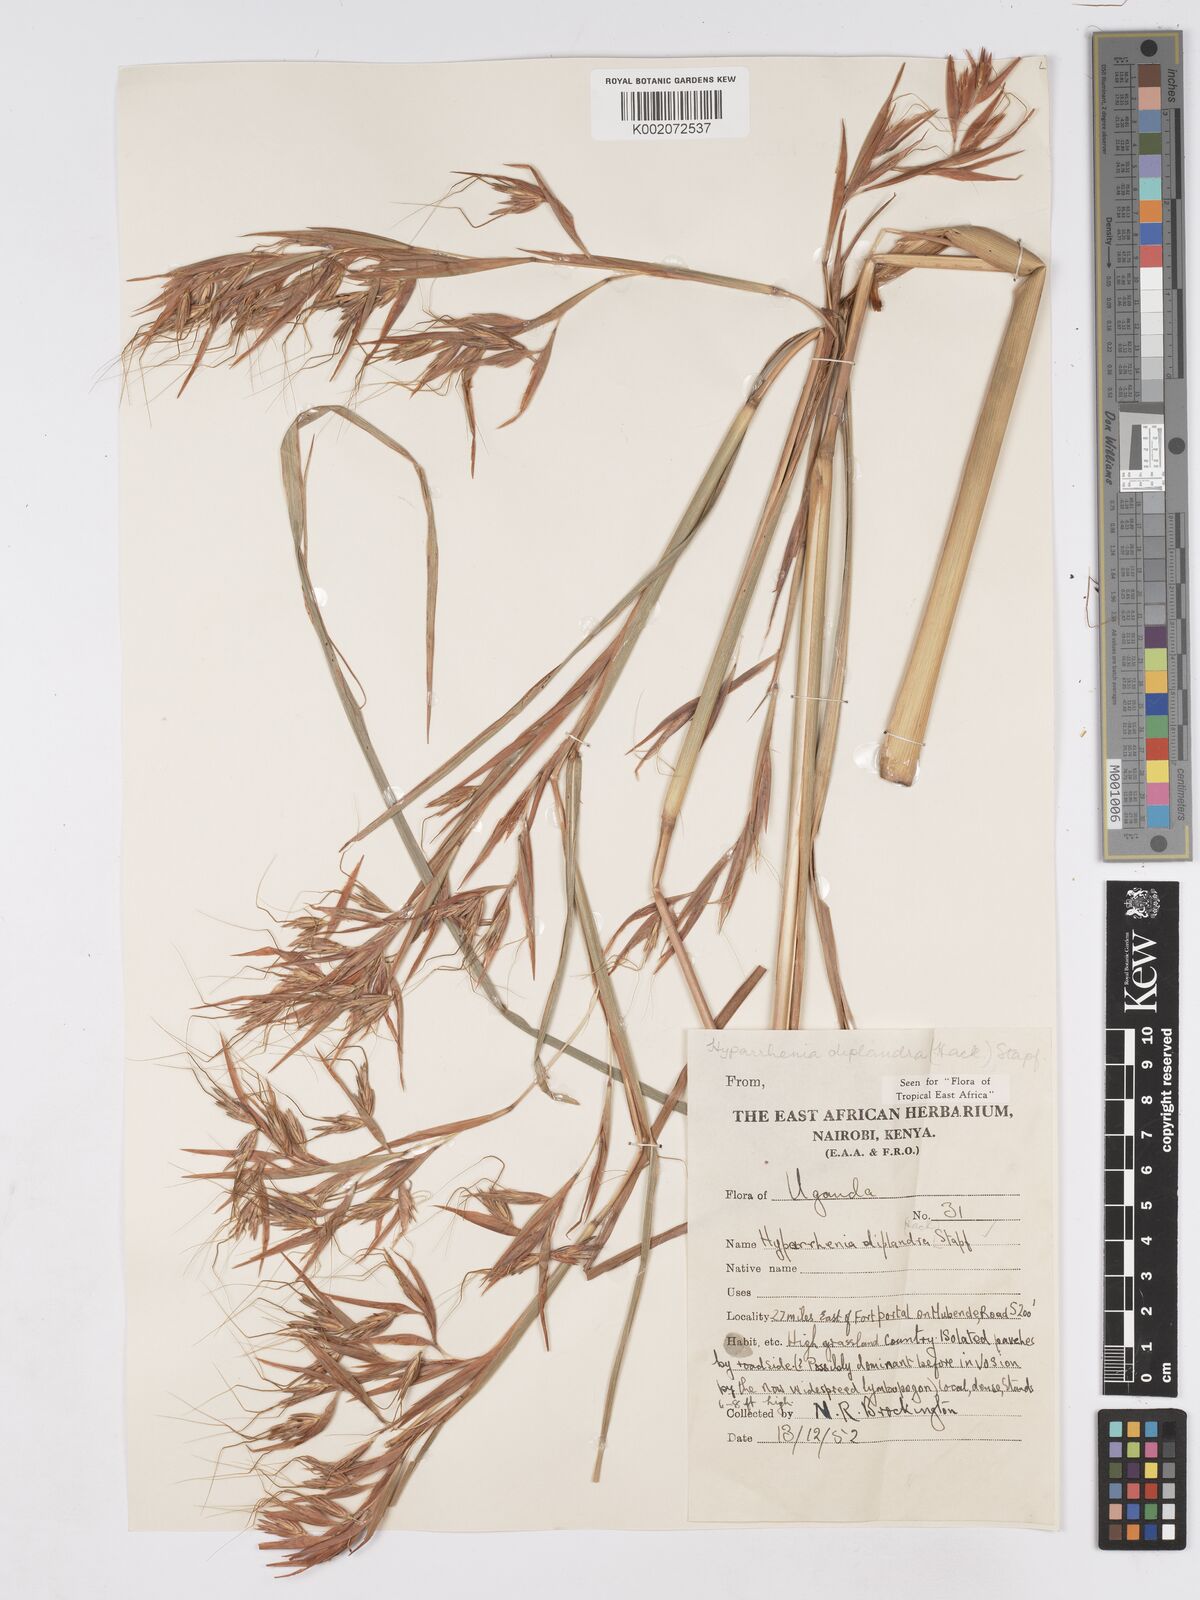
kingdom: Plantae
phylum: Tracheophyta
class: Liliopsida
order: Poales
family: Poaceae
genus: Hyparrhenia
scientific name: Hyparrhenia diplandra
